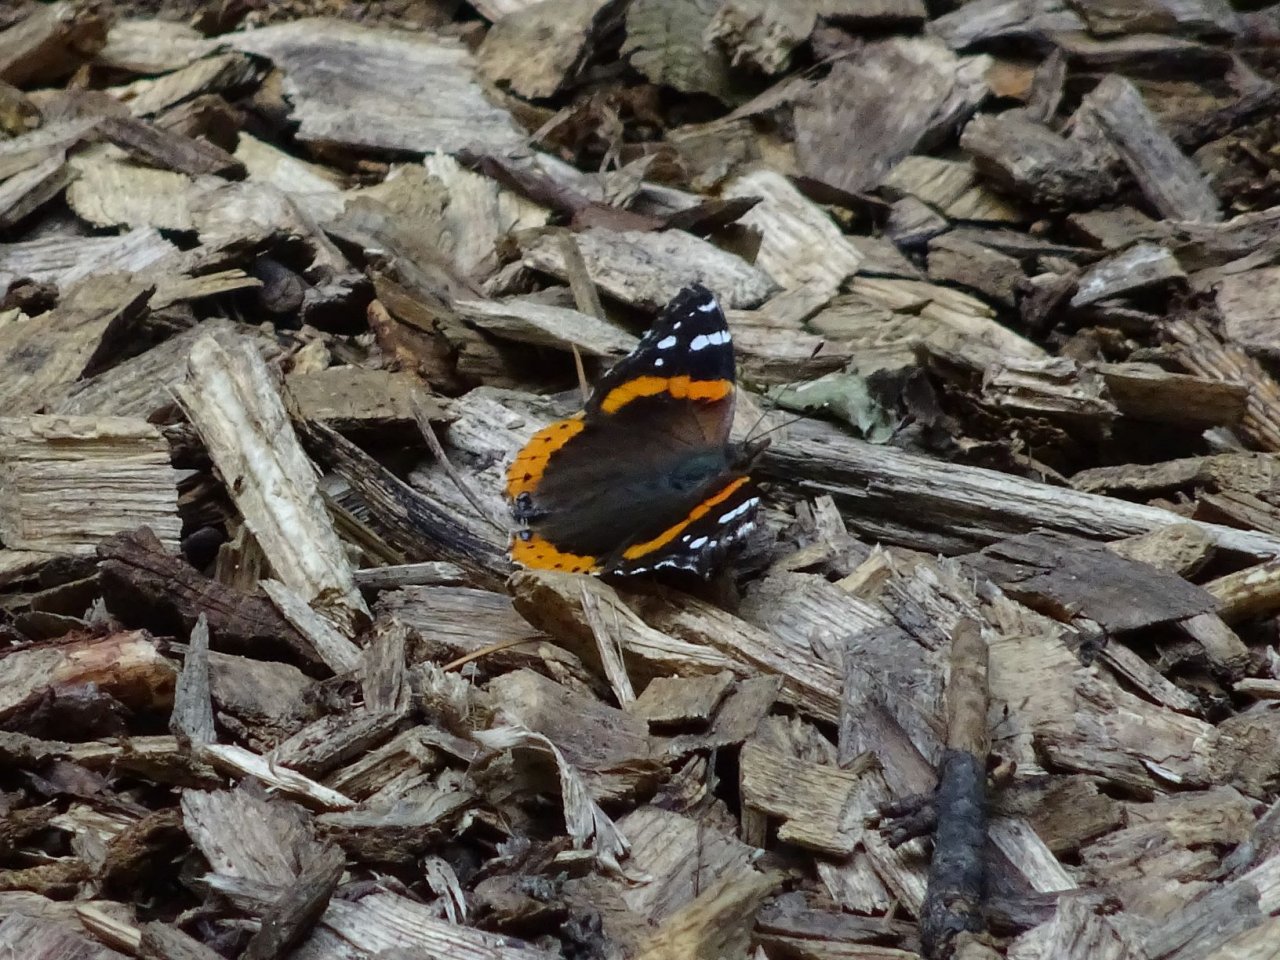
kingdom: Animalia
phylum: Arthropoda
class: Insecta
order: Lepidoptera
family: Nymphalidae
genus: Vanessa
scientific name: Vanessa atalanta
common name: Red Admiral
